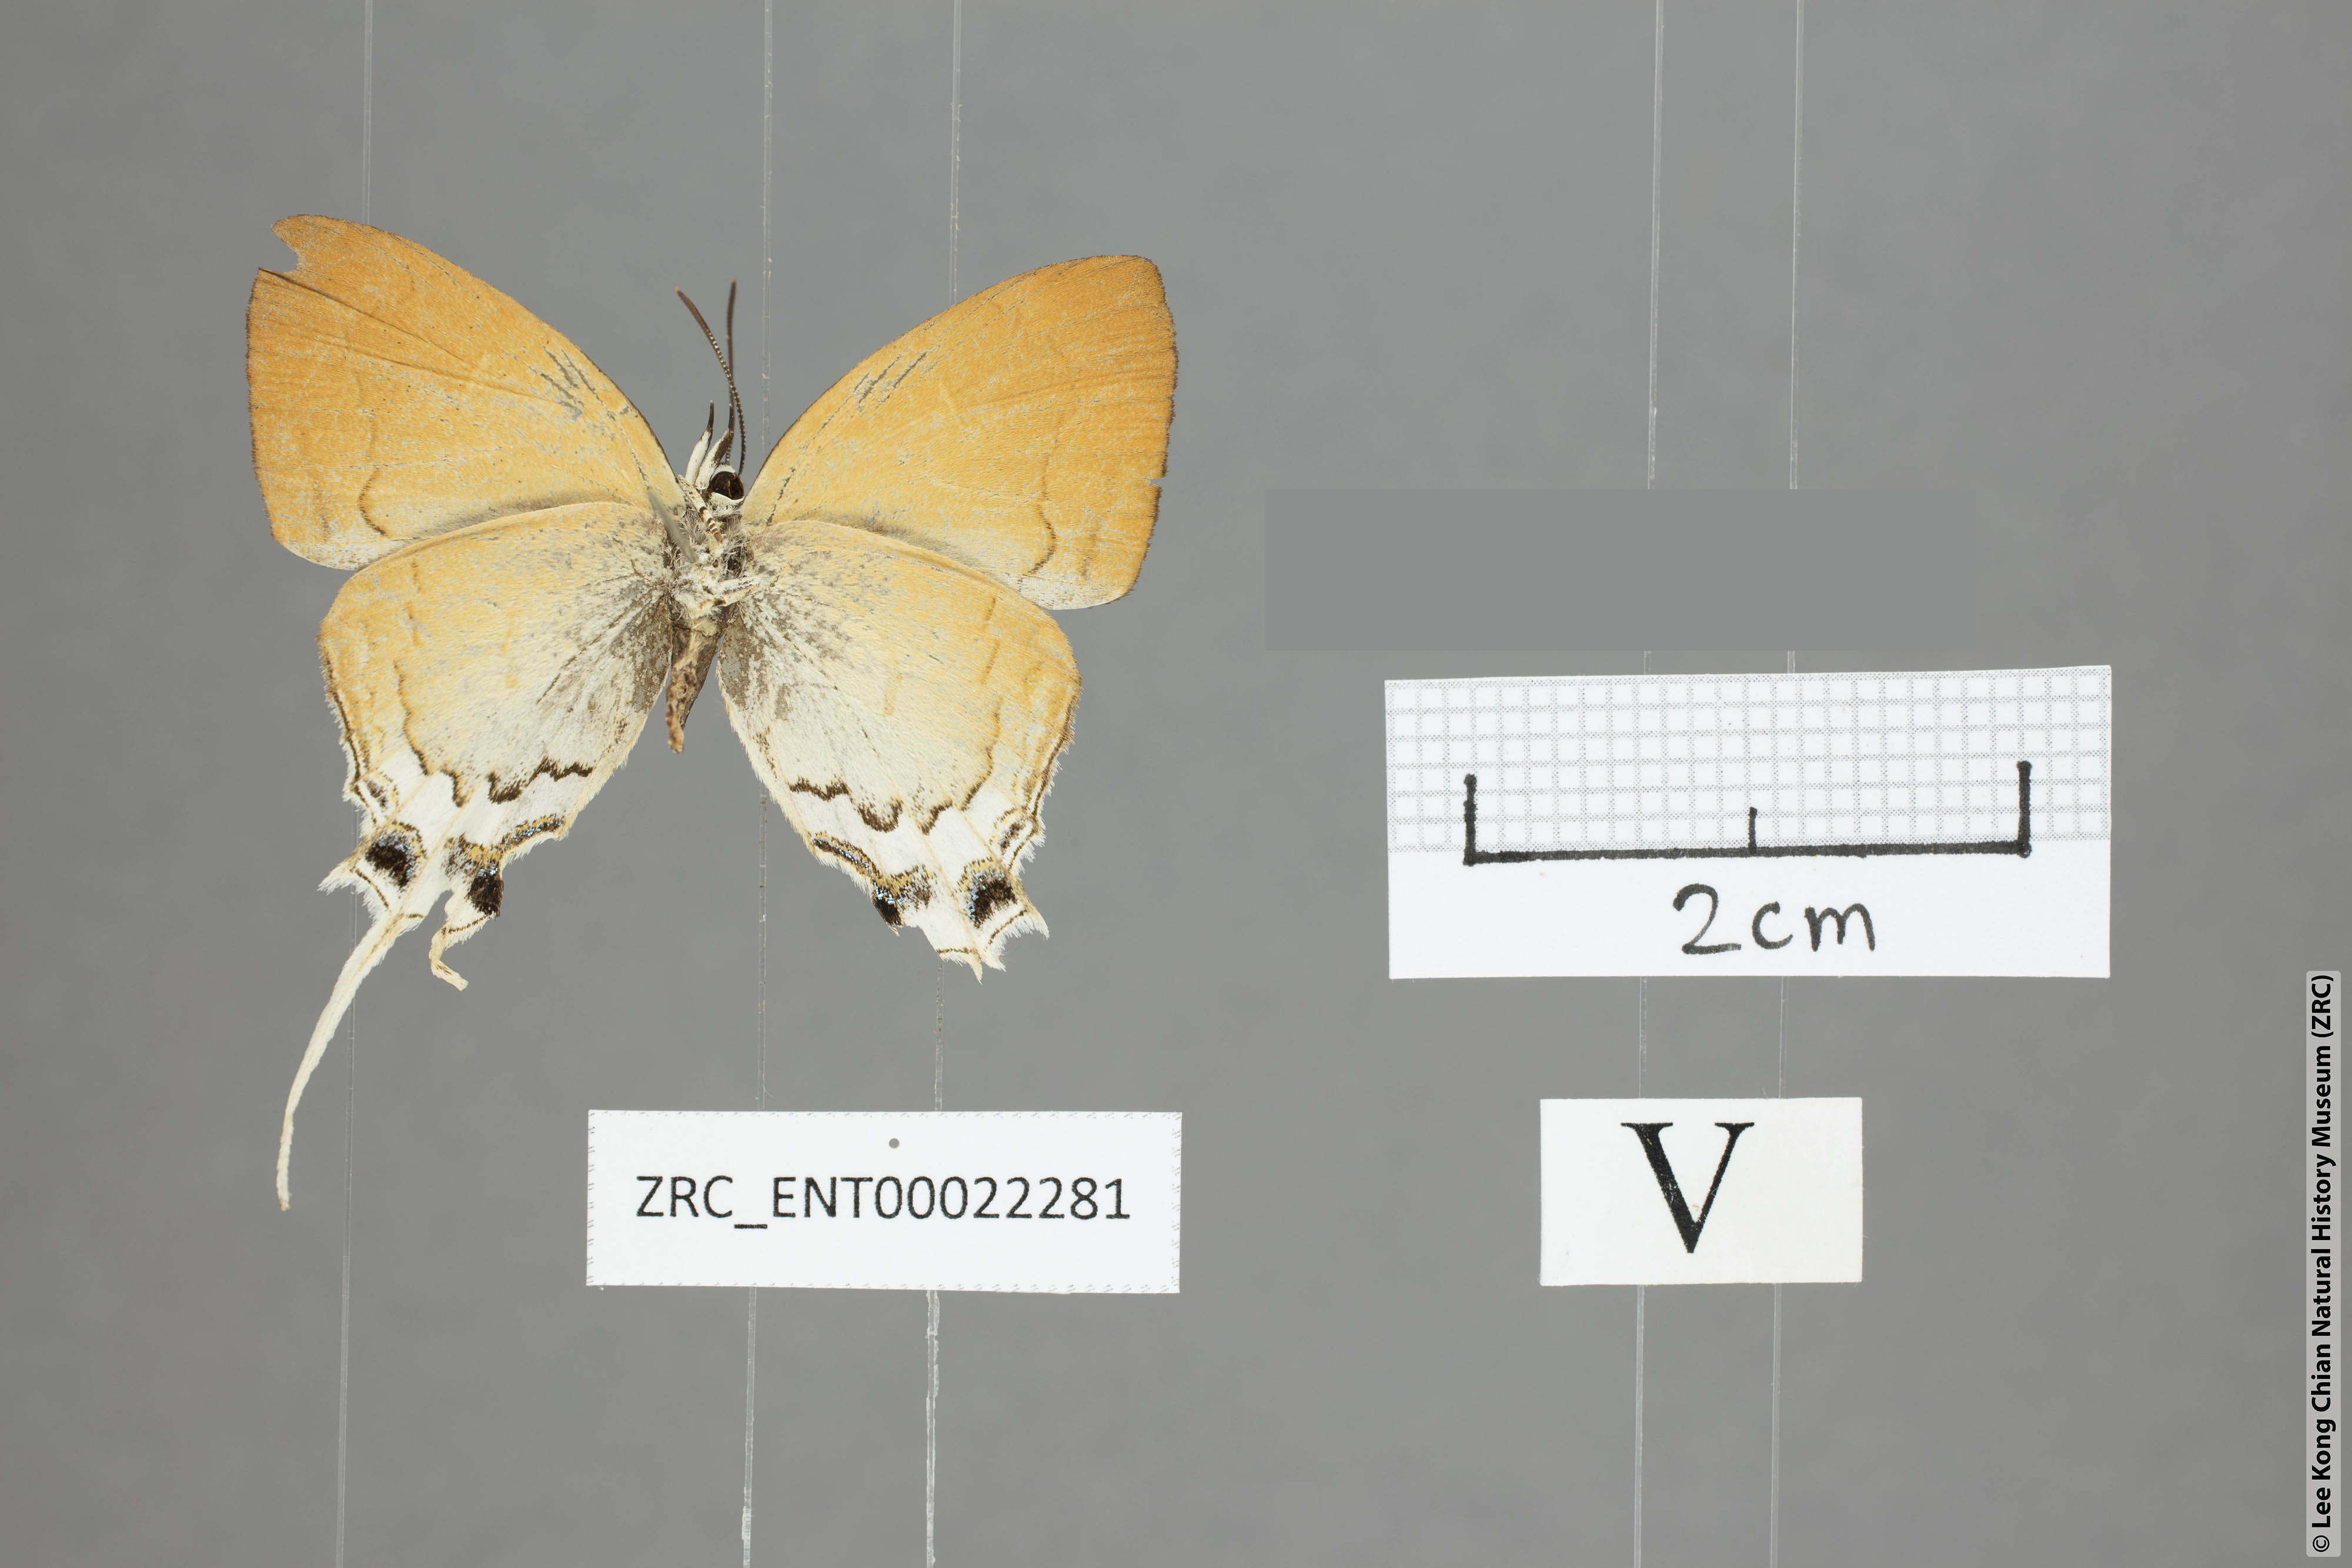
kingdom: Animalia
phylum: Arthropoda
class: Insecta
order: Lepidoptera
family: Lycaenidae
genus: Ticherra
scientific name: Ticherra acte
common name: Blue imperial
